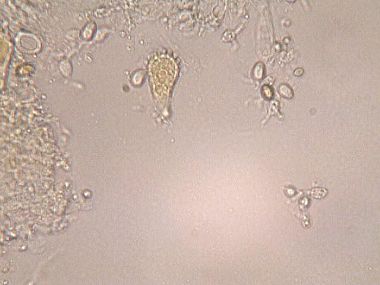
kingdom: Fungi
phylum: Basidiomycota
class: Agaricomycetes
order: Agaricales
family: Mycenaceae
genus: Mycena
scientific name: Mycena flavescens
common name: grågul huesvamp
